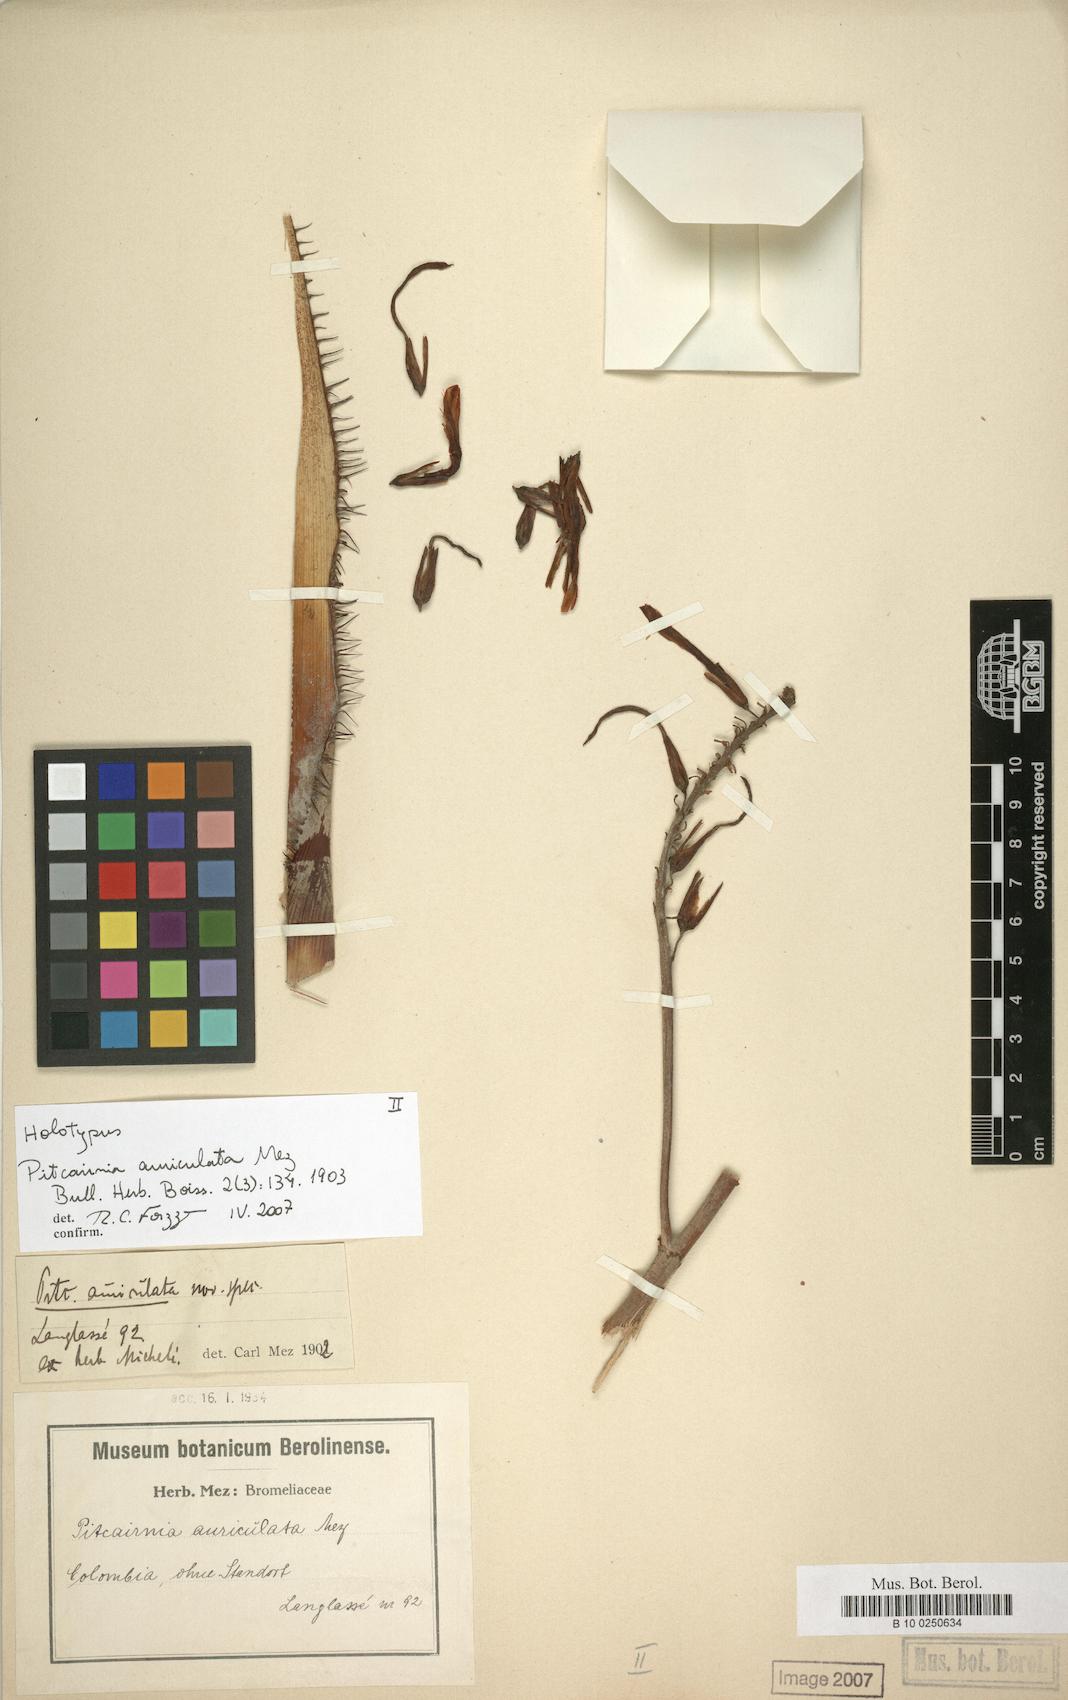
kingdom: Plantae
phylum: Tracheophyta
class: Liliopsida
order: Poales
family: Bromeliaceae
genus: Pitcairnia
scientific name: Pitcairnia lehmannii
